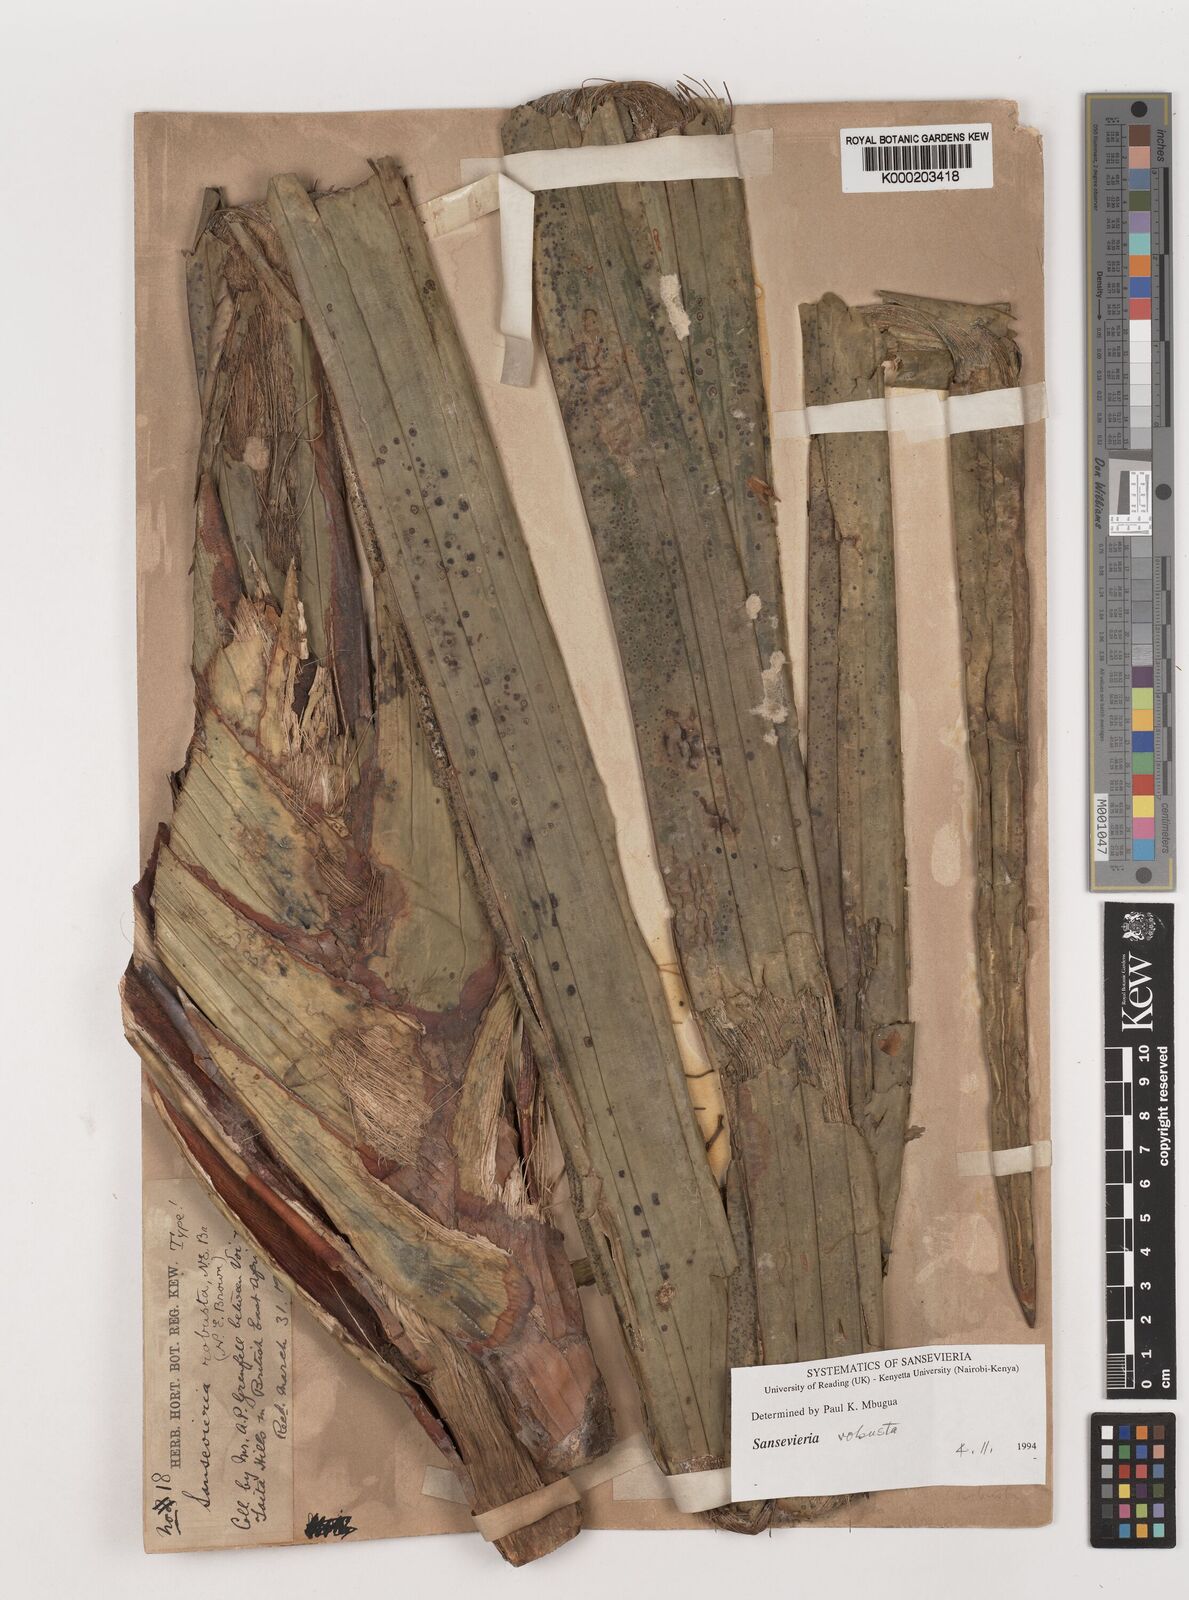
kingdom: Plantae
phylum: Tracheophyta
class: Liliopsida
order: Asparagales
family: Asparagaceae
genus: Dracaena
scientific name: Dracaena perrotii
